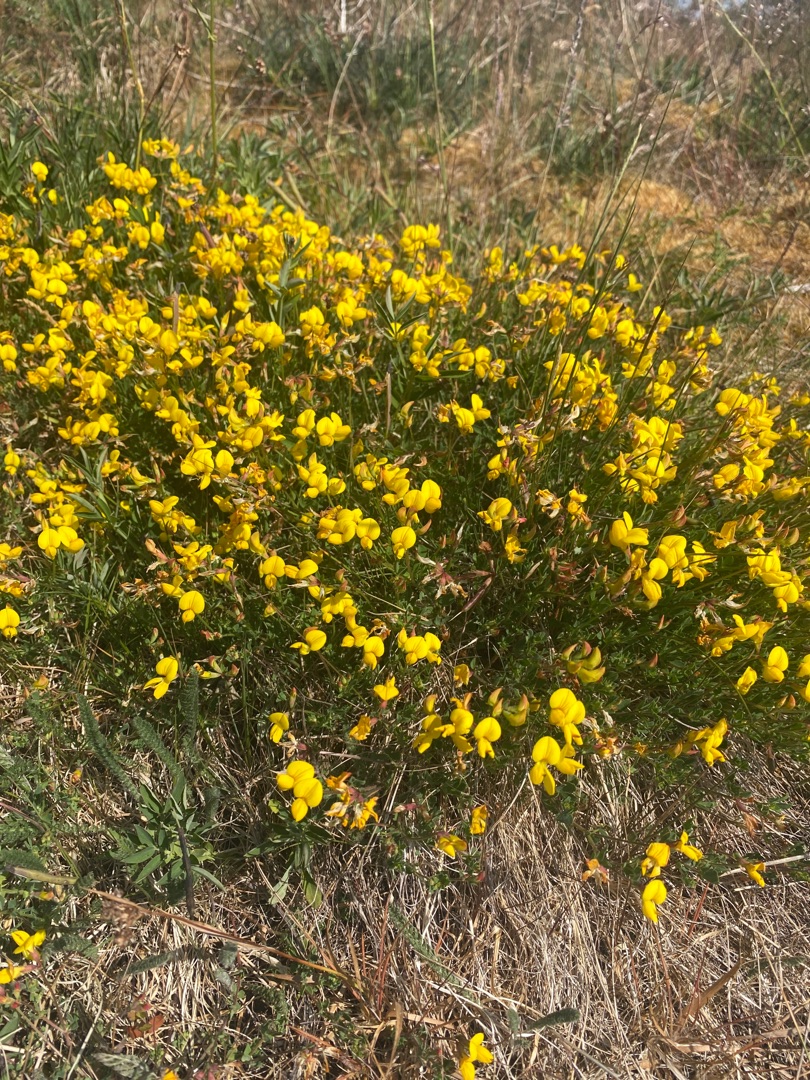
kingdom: Plantae
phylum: Tracheophyta
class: Magnoliopsida
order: Fabales
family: Fabaceae
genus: Lotus
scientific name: Lotus corniculatus
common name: Almindelig kællingetand
